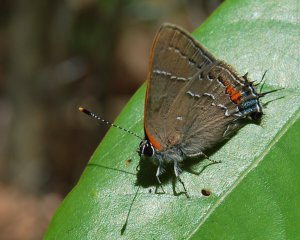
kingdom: Animalia
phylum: Arthropoda
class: Insecta
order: Lepidoptera
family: Lycaenidae
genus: Fixsenia
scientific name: Fixsenia favonius
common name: Oak Hairstreak
